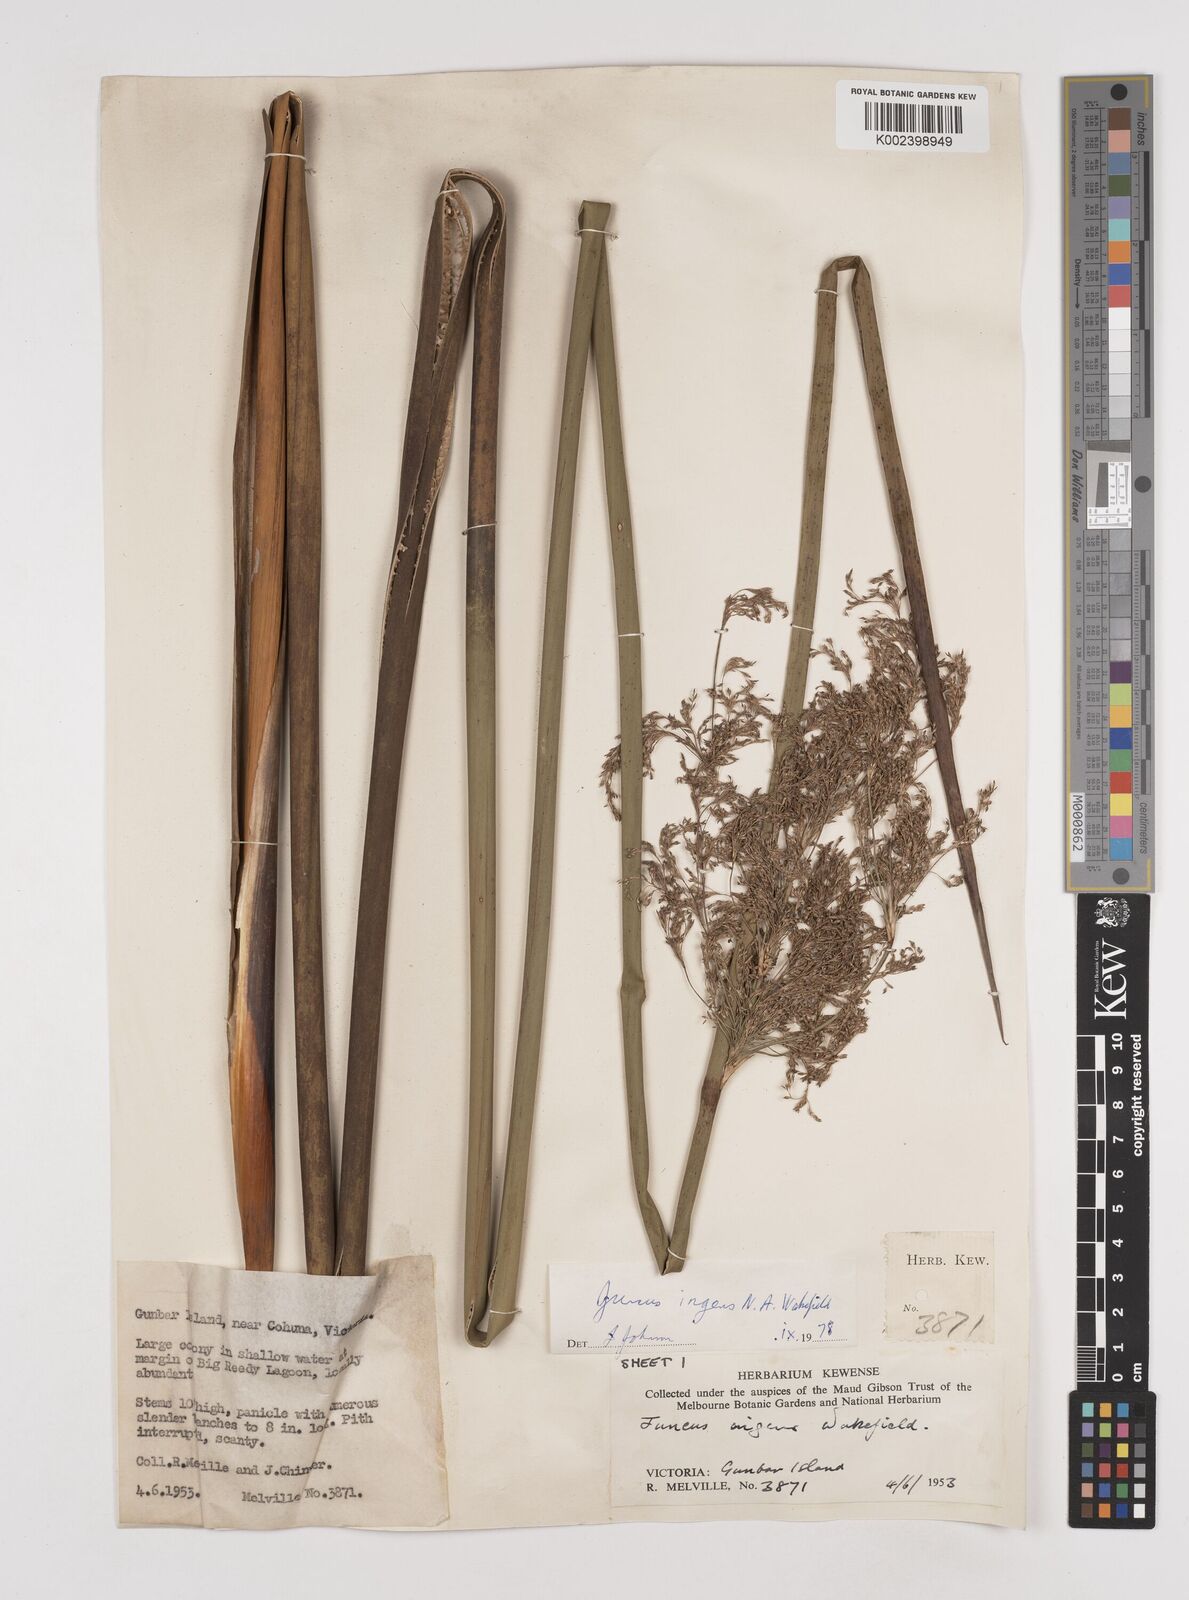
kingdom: Plantae
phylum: Tracheophyta
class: Liliopsida
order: Poales
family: Juncaceae
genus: Juncus
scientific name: Juncus ingens
